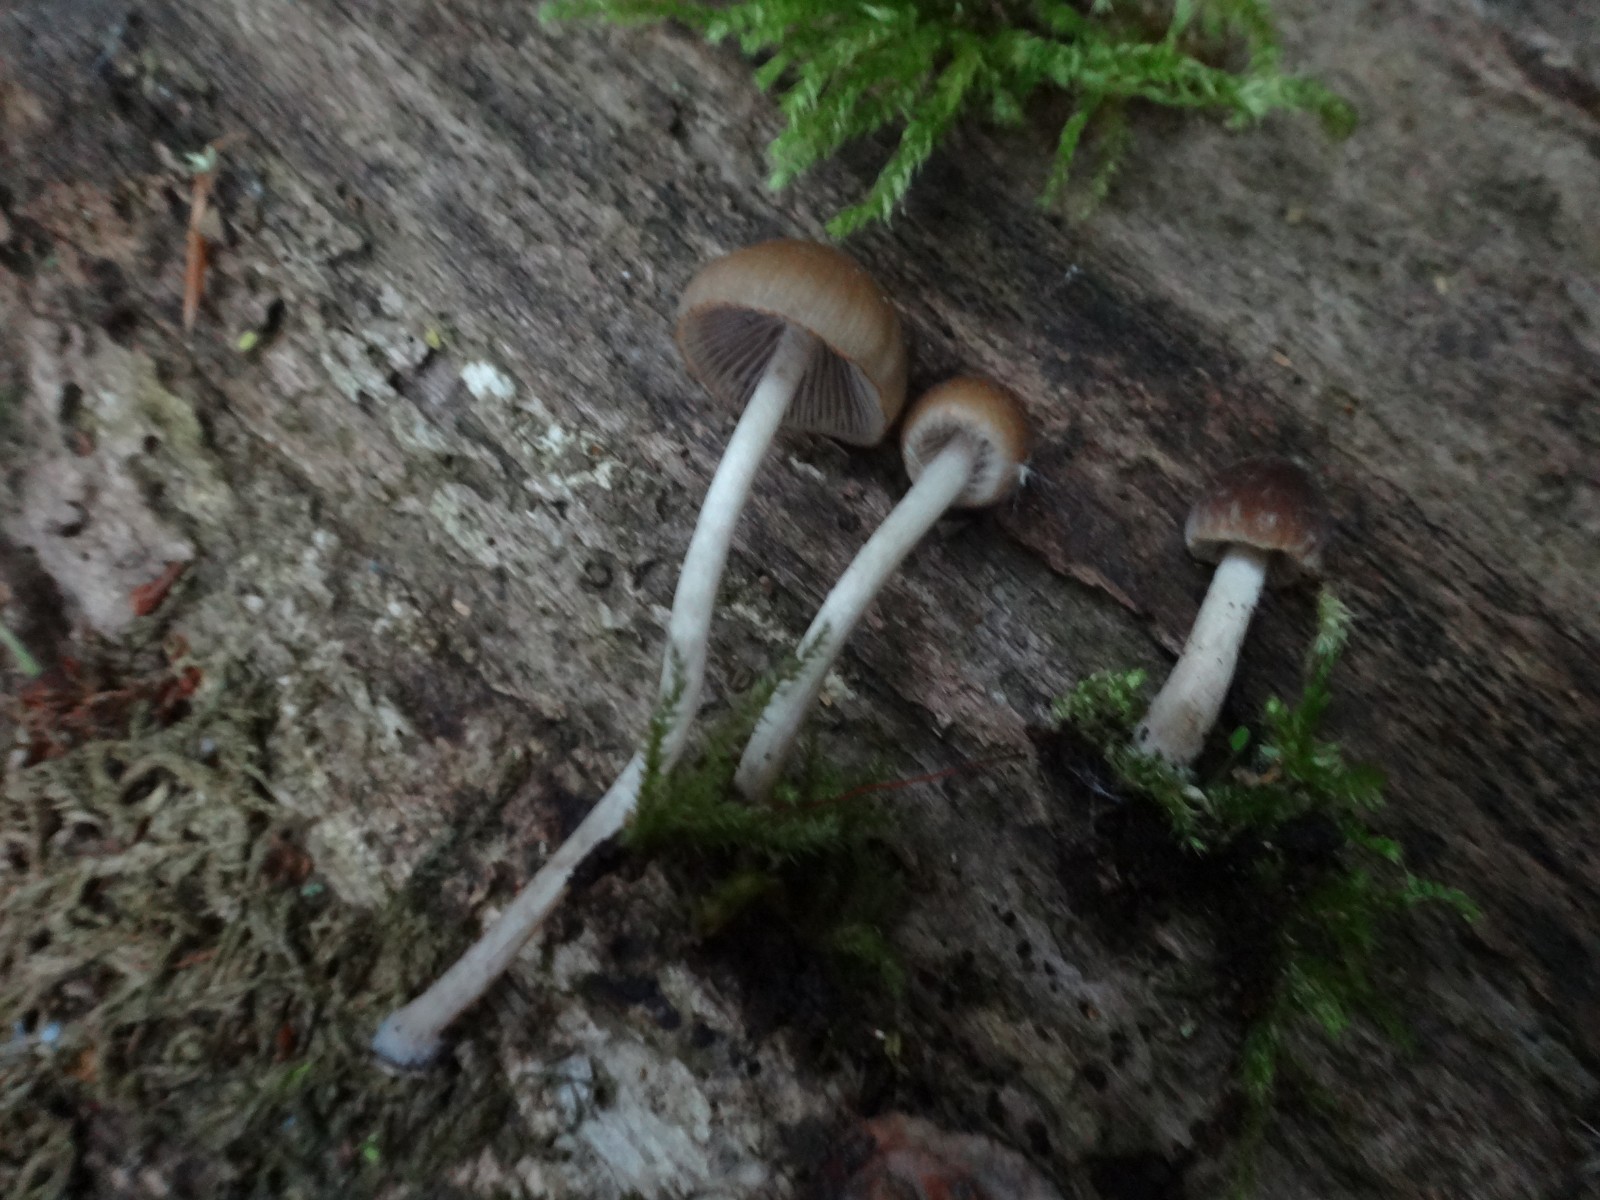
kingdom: Fungi
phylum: Basidiomycota
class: Agaricomycetes
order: Agaricales
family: Psathyrellaceae
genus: Psathyrella
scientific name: Psathyrella obtusata
